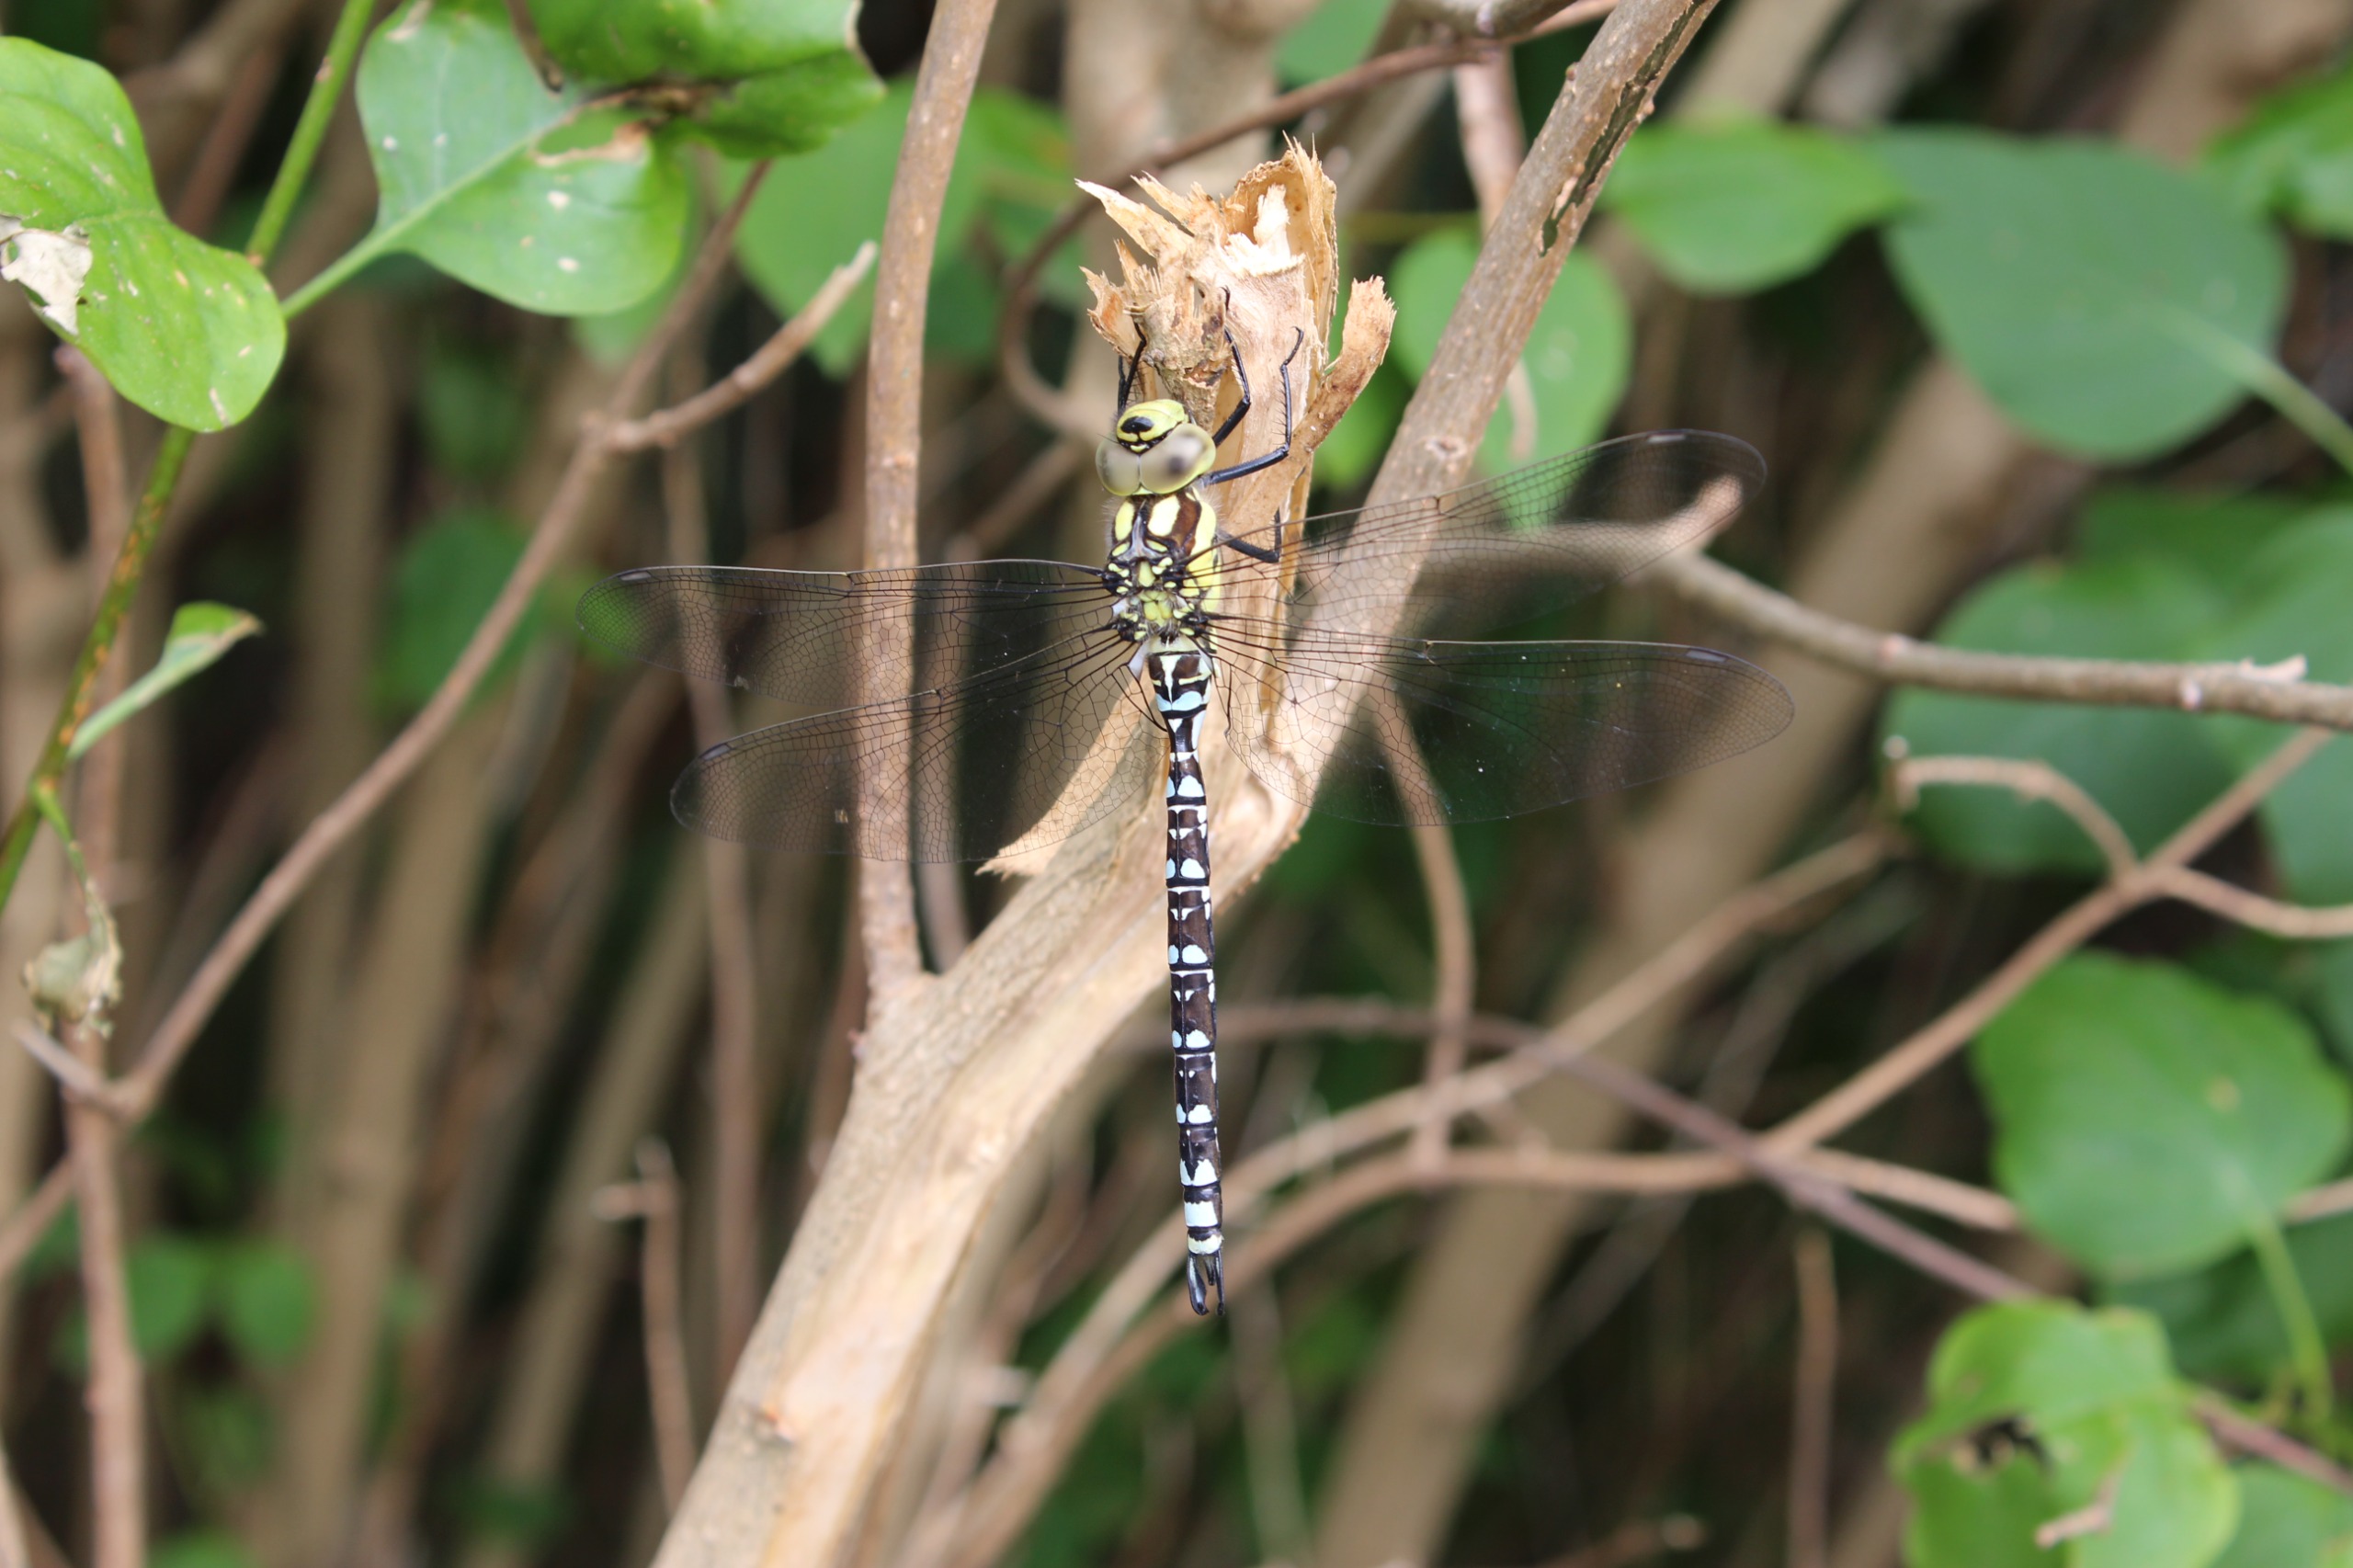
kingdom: Animalia
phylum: Arthropoda
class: Insecta
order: Odonata
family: Aeshnidae
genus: Aeshna
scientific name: Aeshna cyanea
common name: Blå mosaikguldsmed
